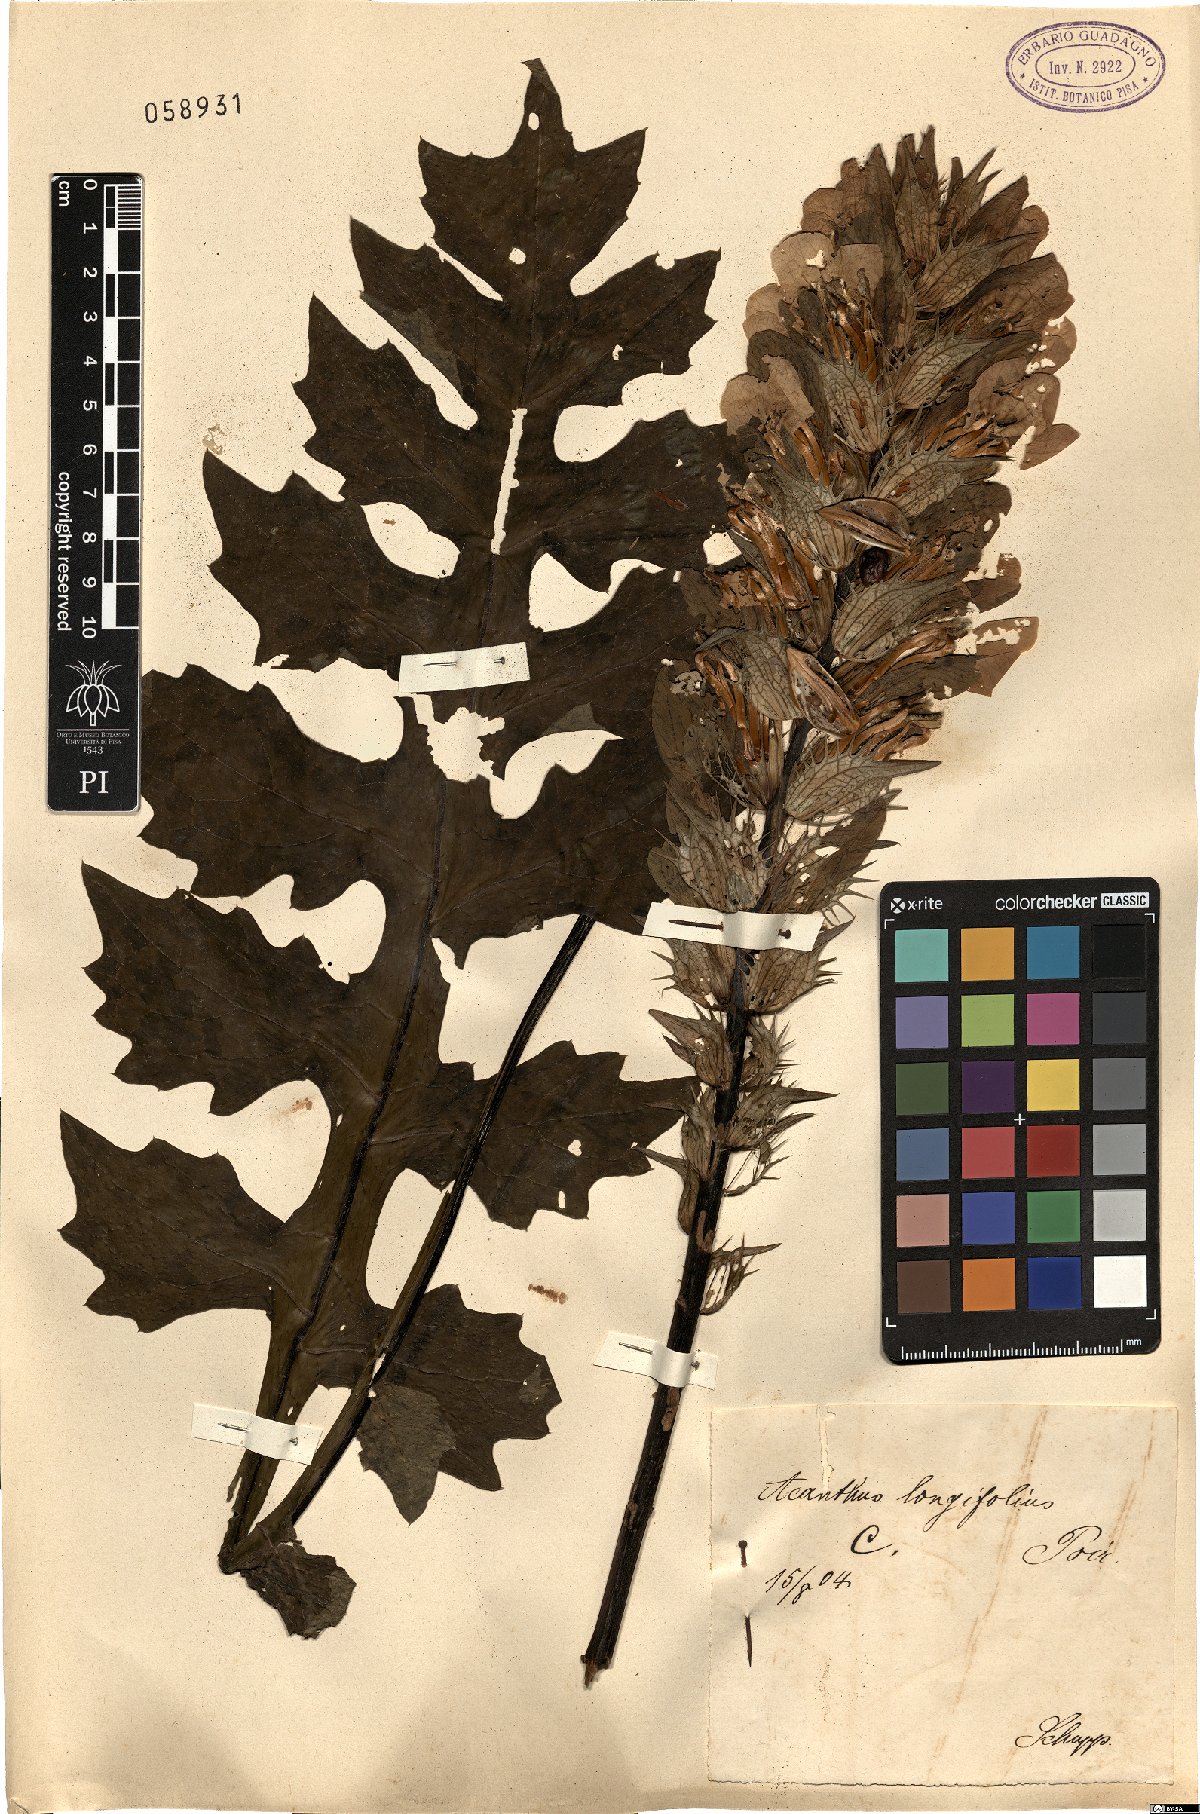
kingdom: Plantae
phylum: Tracheophyta
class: Magnoliopsida
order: Lamiales
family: Acanthaceae
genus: Acanthus
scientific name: Acanthus mollis
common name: Bear's-breech
